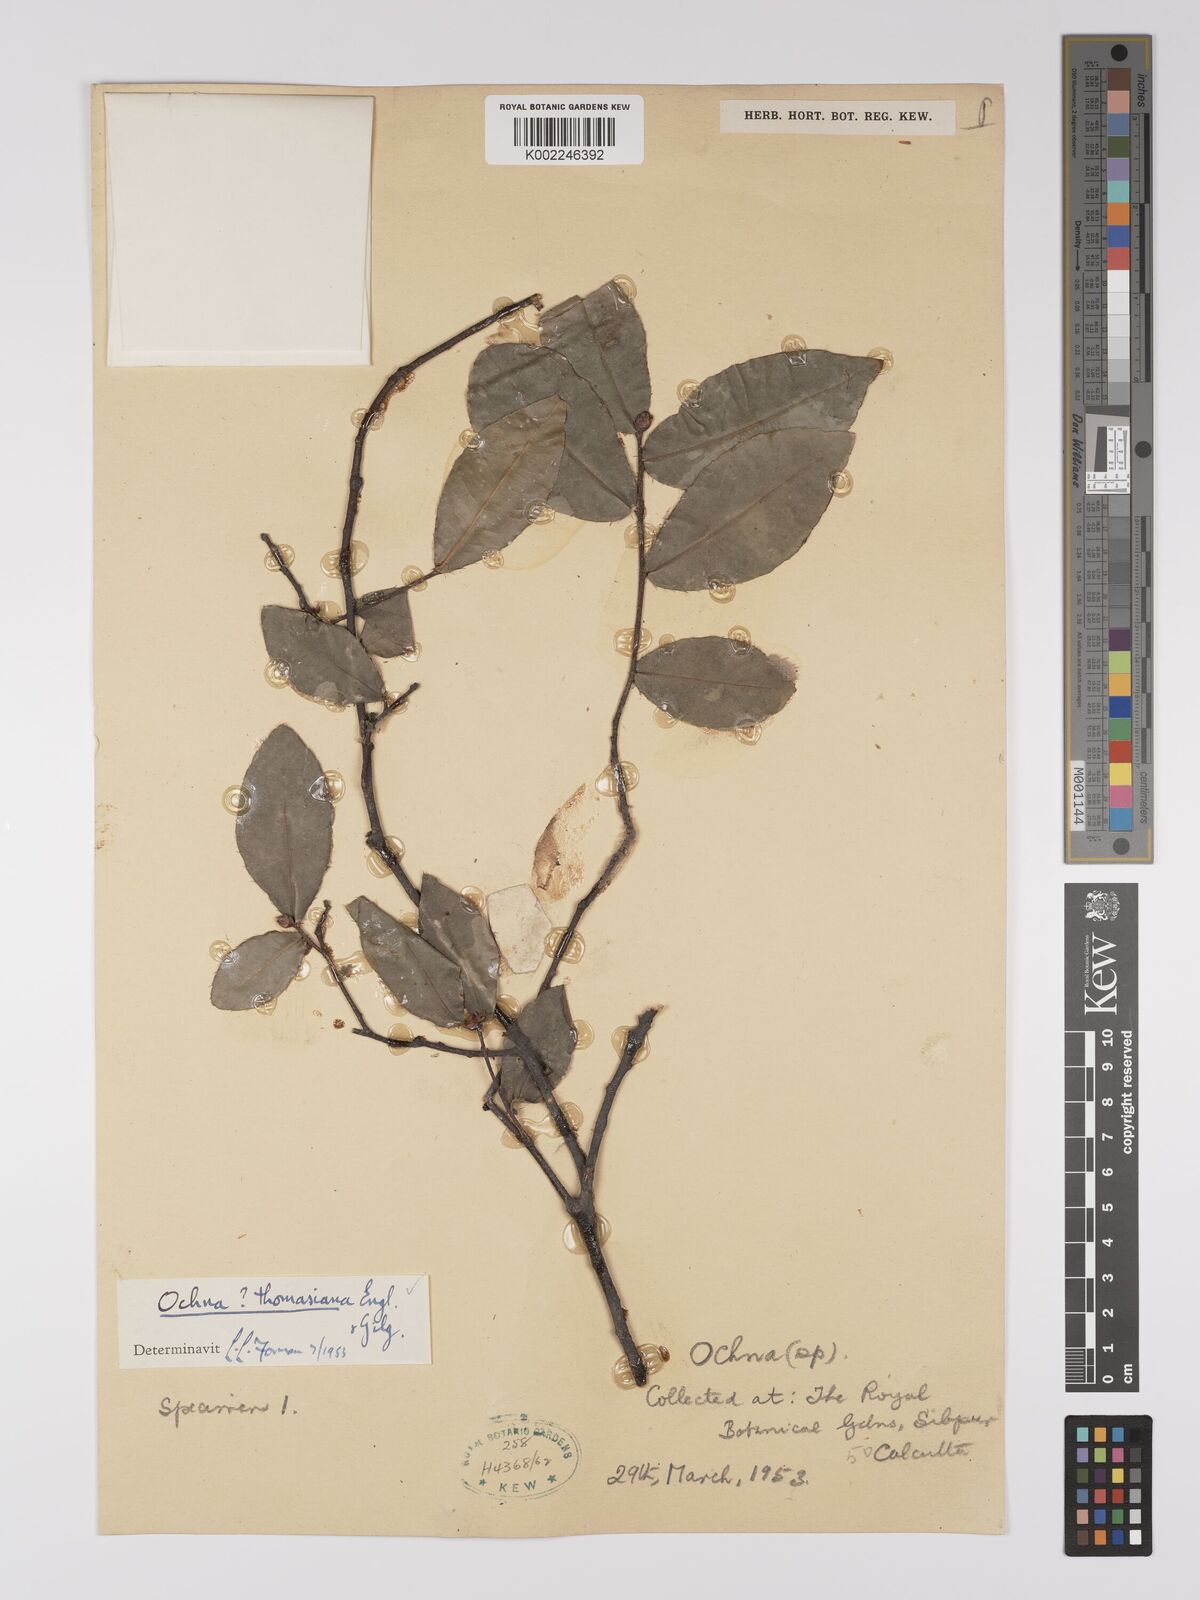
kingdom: Plantae
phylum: Tracheophyta
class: Magnoliopsida
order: Malpighiales
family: Ochnaceae
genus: Ochna
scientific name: Ochna thomasiana
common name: Thomas' bird's-eye bush
